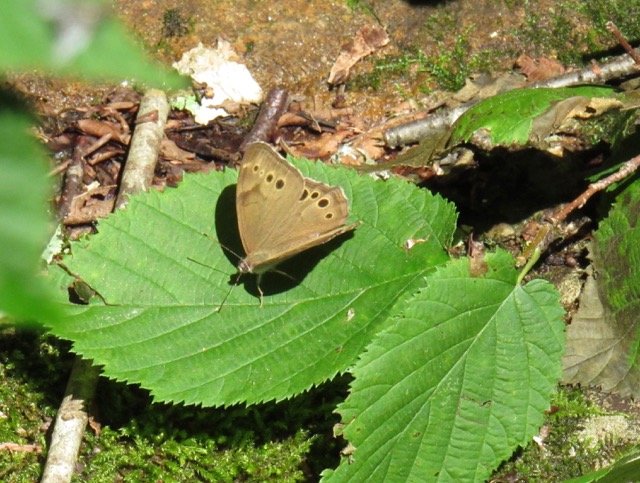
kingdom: Animalia
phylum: Arthropoda
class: Insecta
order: Lepidoptera
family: Nymphalidae
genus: Lethe
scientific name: Lethe anthedon
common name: Northern Pearly-Eye
